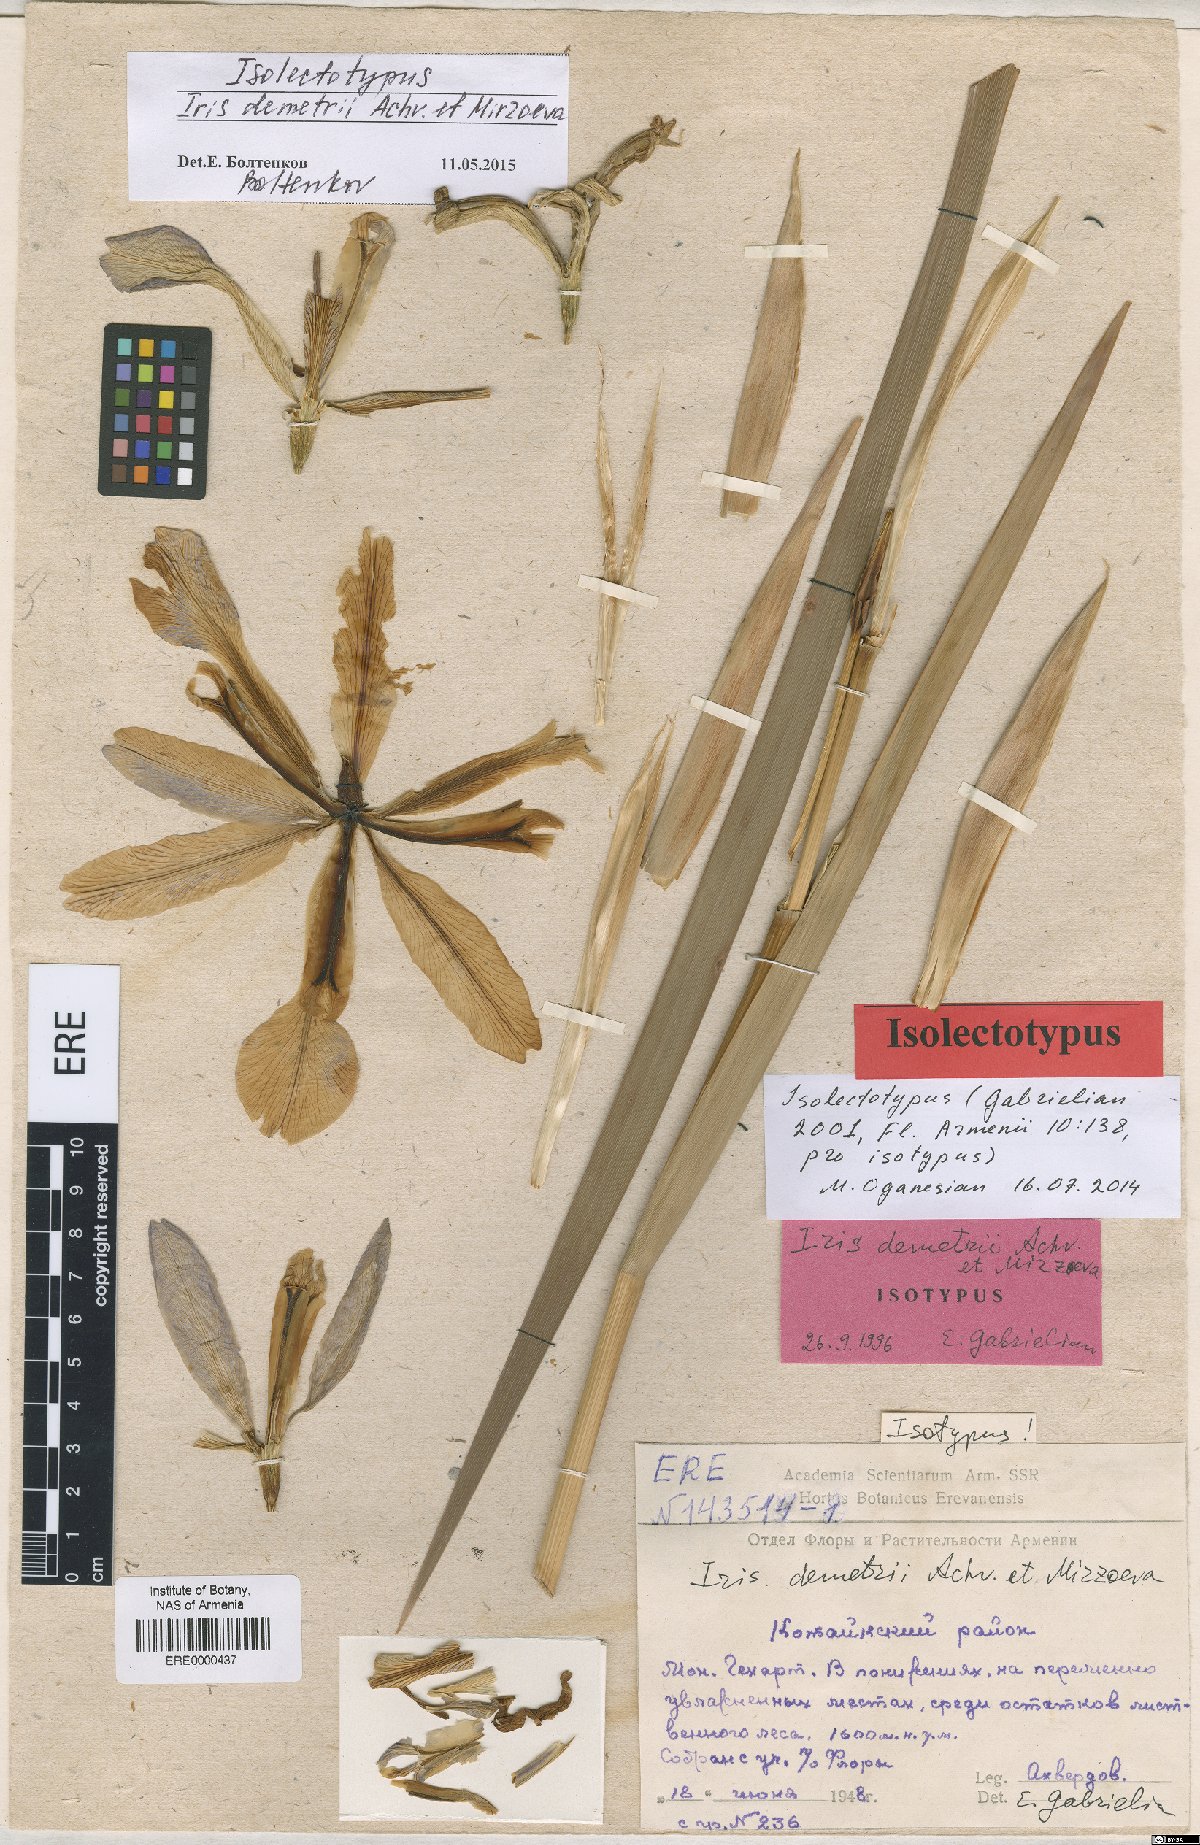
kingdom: Plantae
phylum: Tracheophyta
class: Liliopsida
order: Asparagales
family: Iridaceae
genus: Iris
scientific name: Iris spuria
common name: Blue iris
